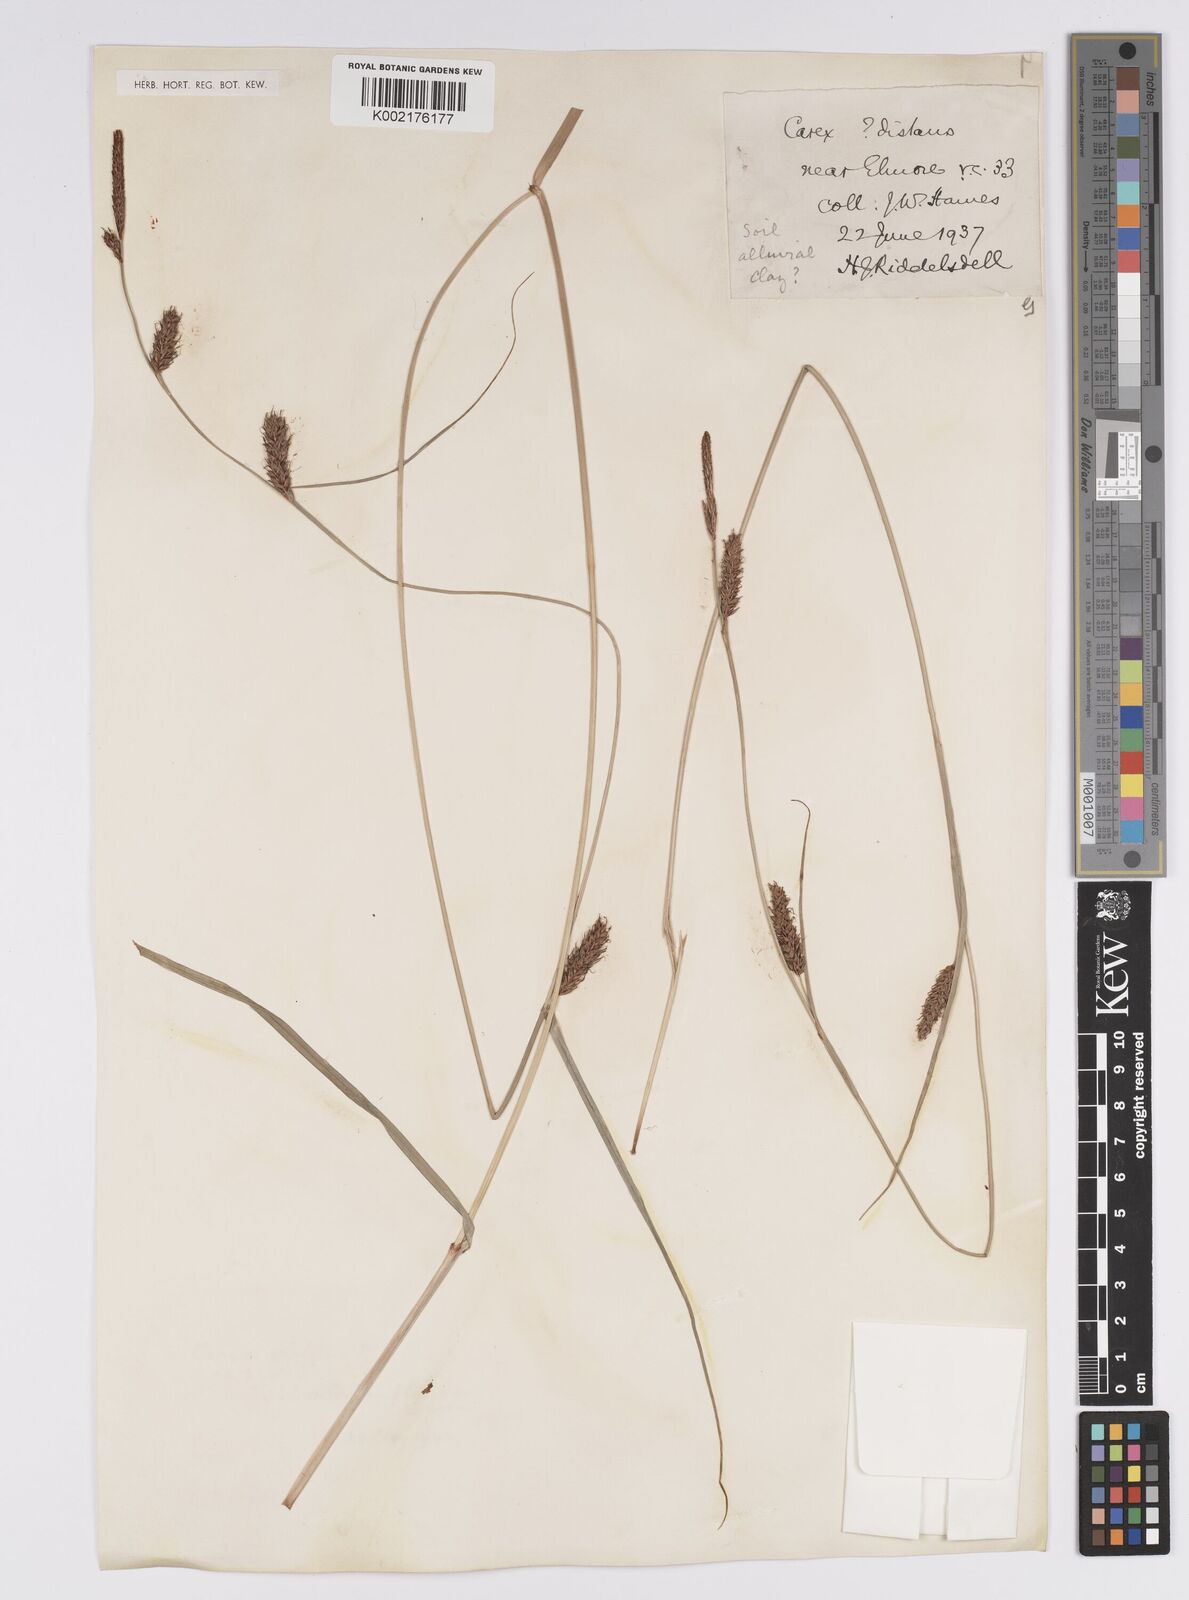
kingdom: Plantae
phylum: Tracheophyta
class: Liliopsida
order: Poales
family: Cyperaceae
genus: Carex
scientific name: Carex distans
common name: Distant sedge
